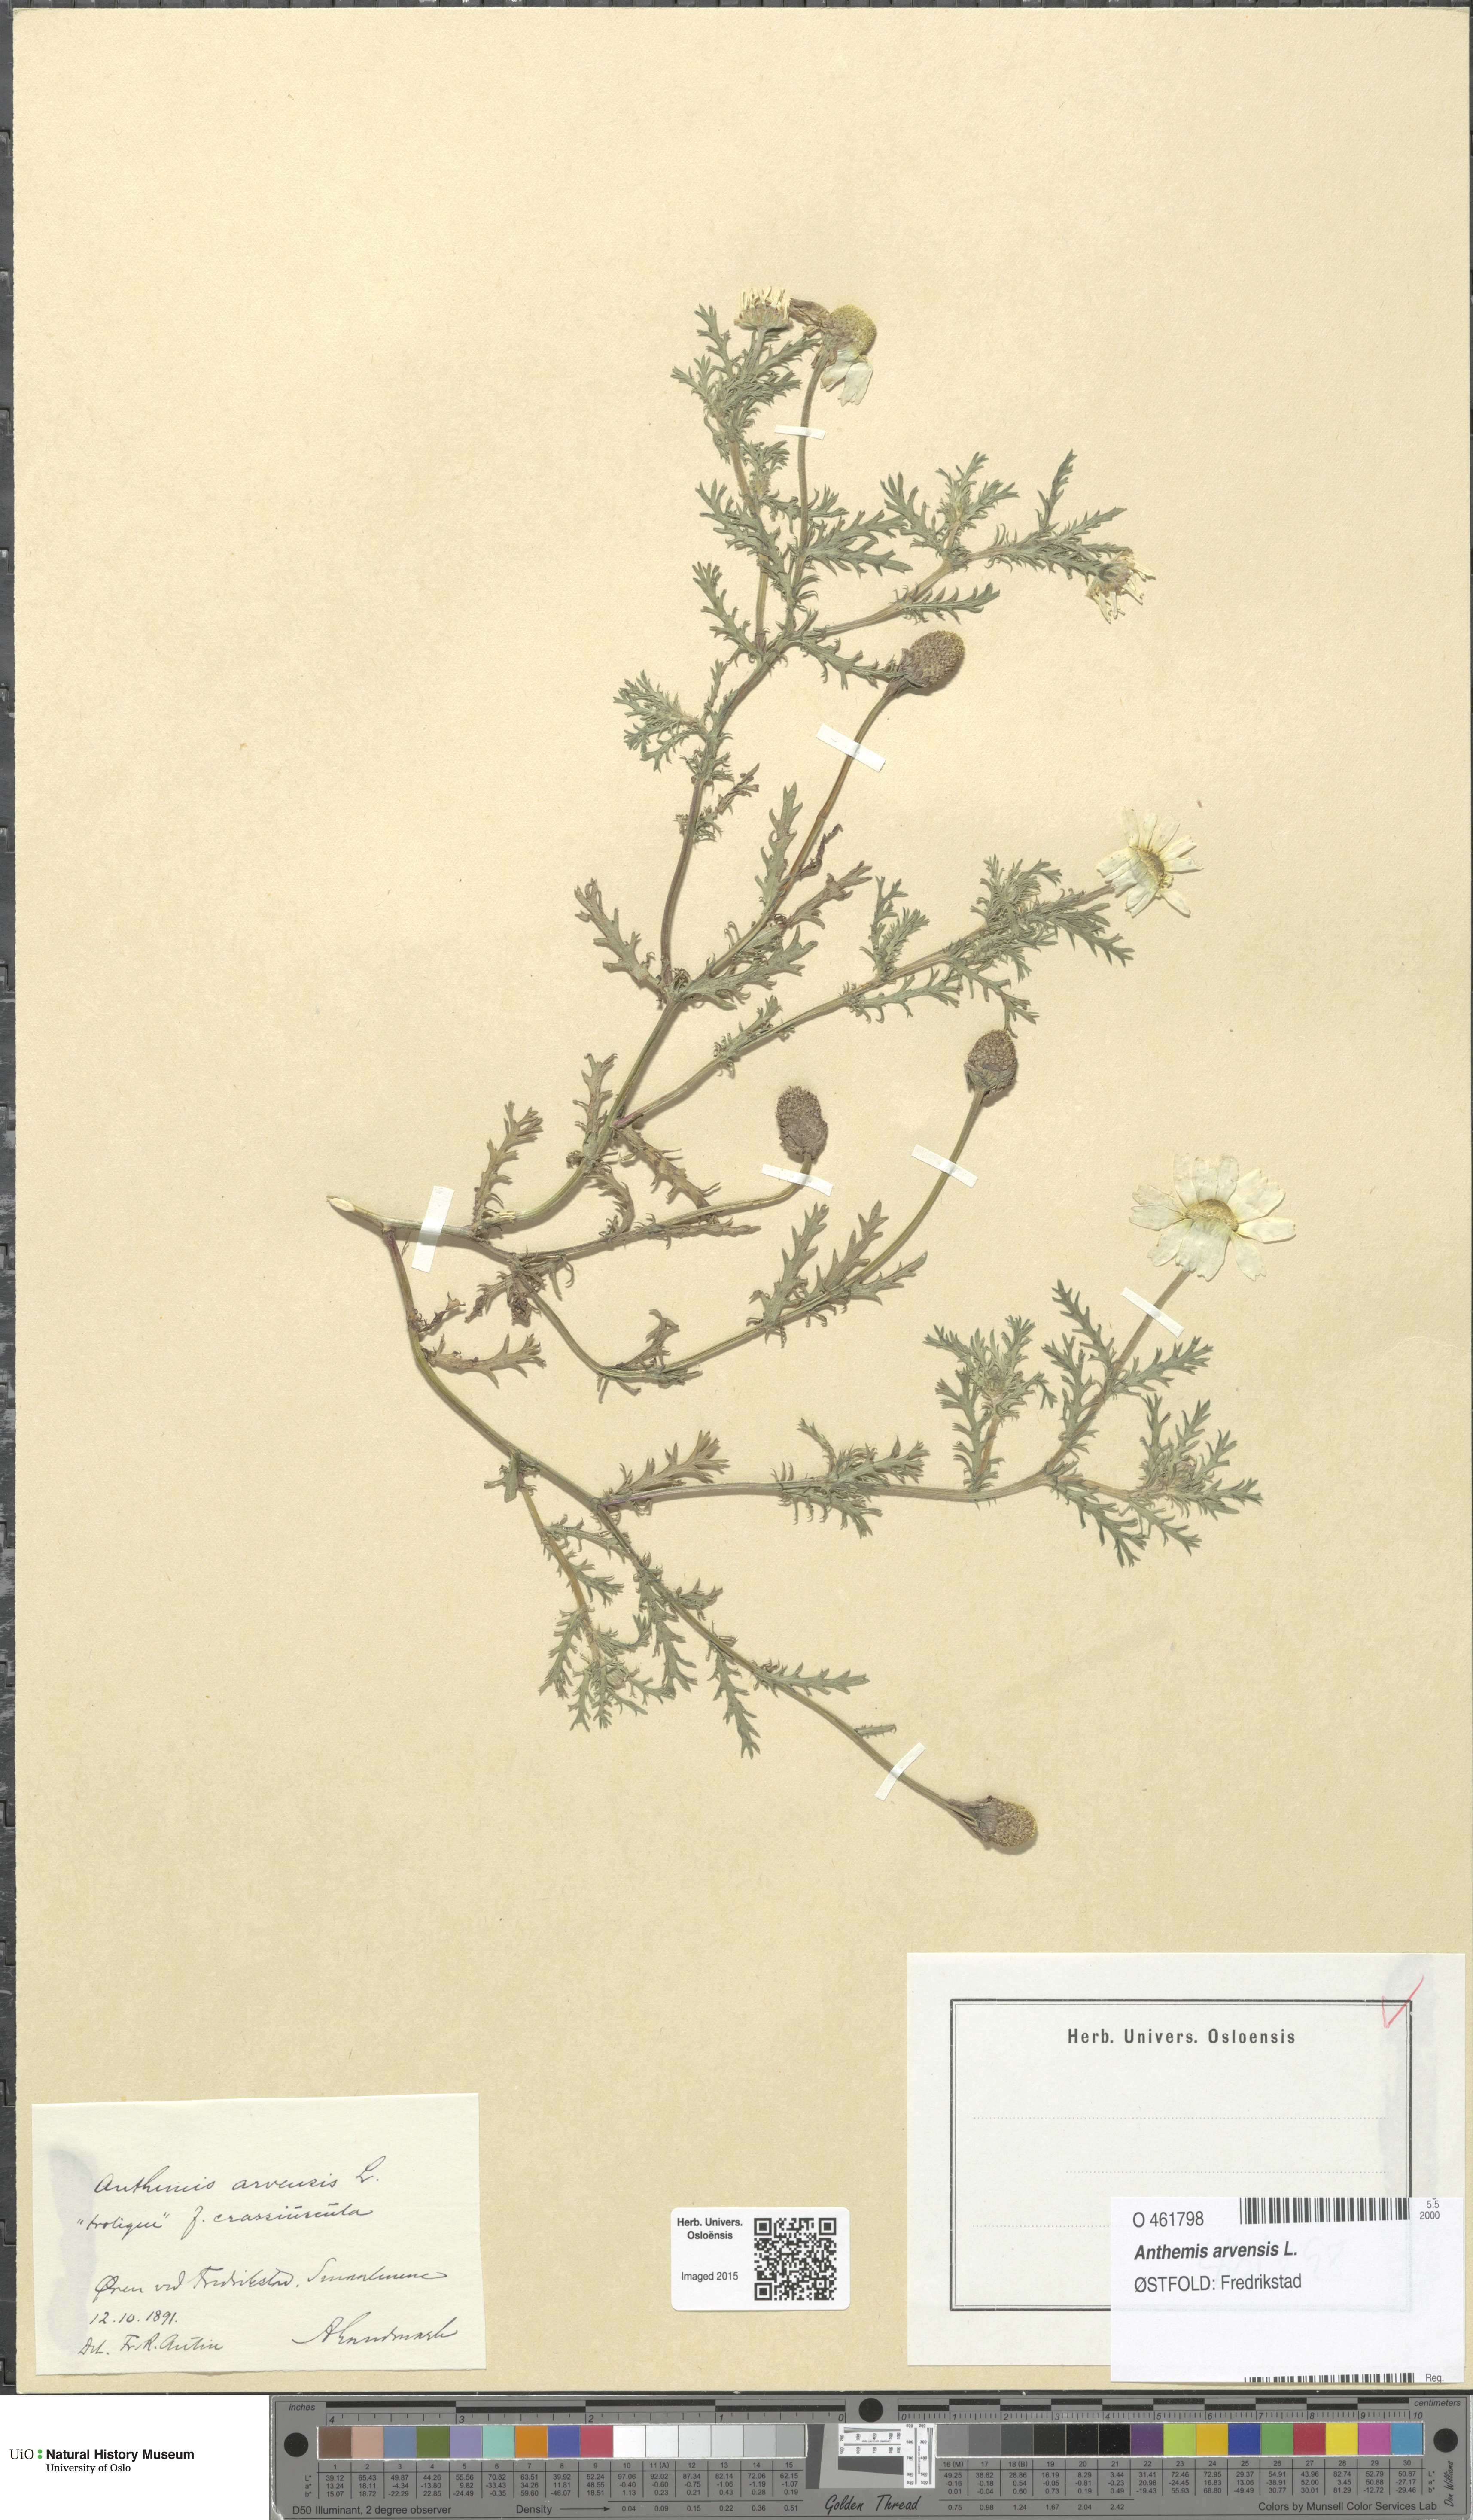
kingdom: Plantae
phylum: Tracheophyta
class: Magnoliopsida
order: Asterales
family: Asteraceae
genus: Anthemis
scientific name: Anthemis arvensis
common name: Corn chamomile
